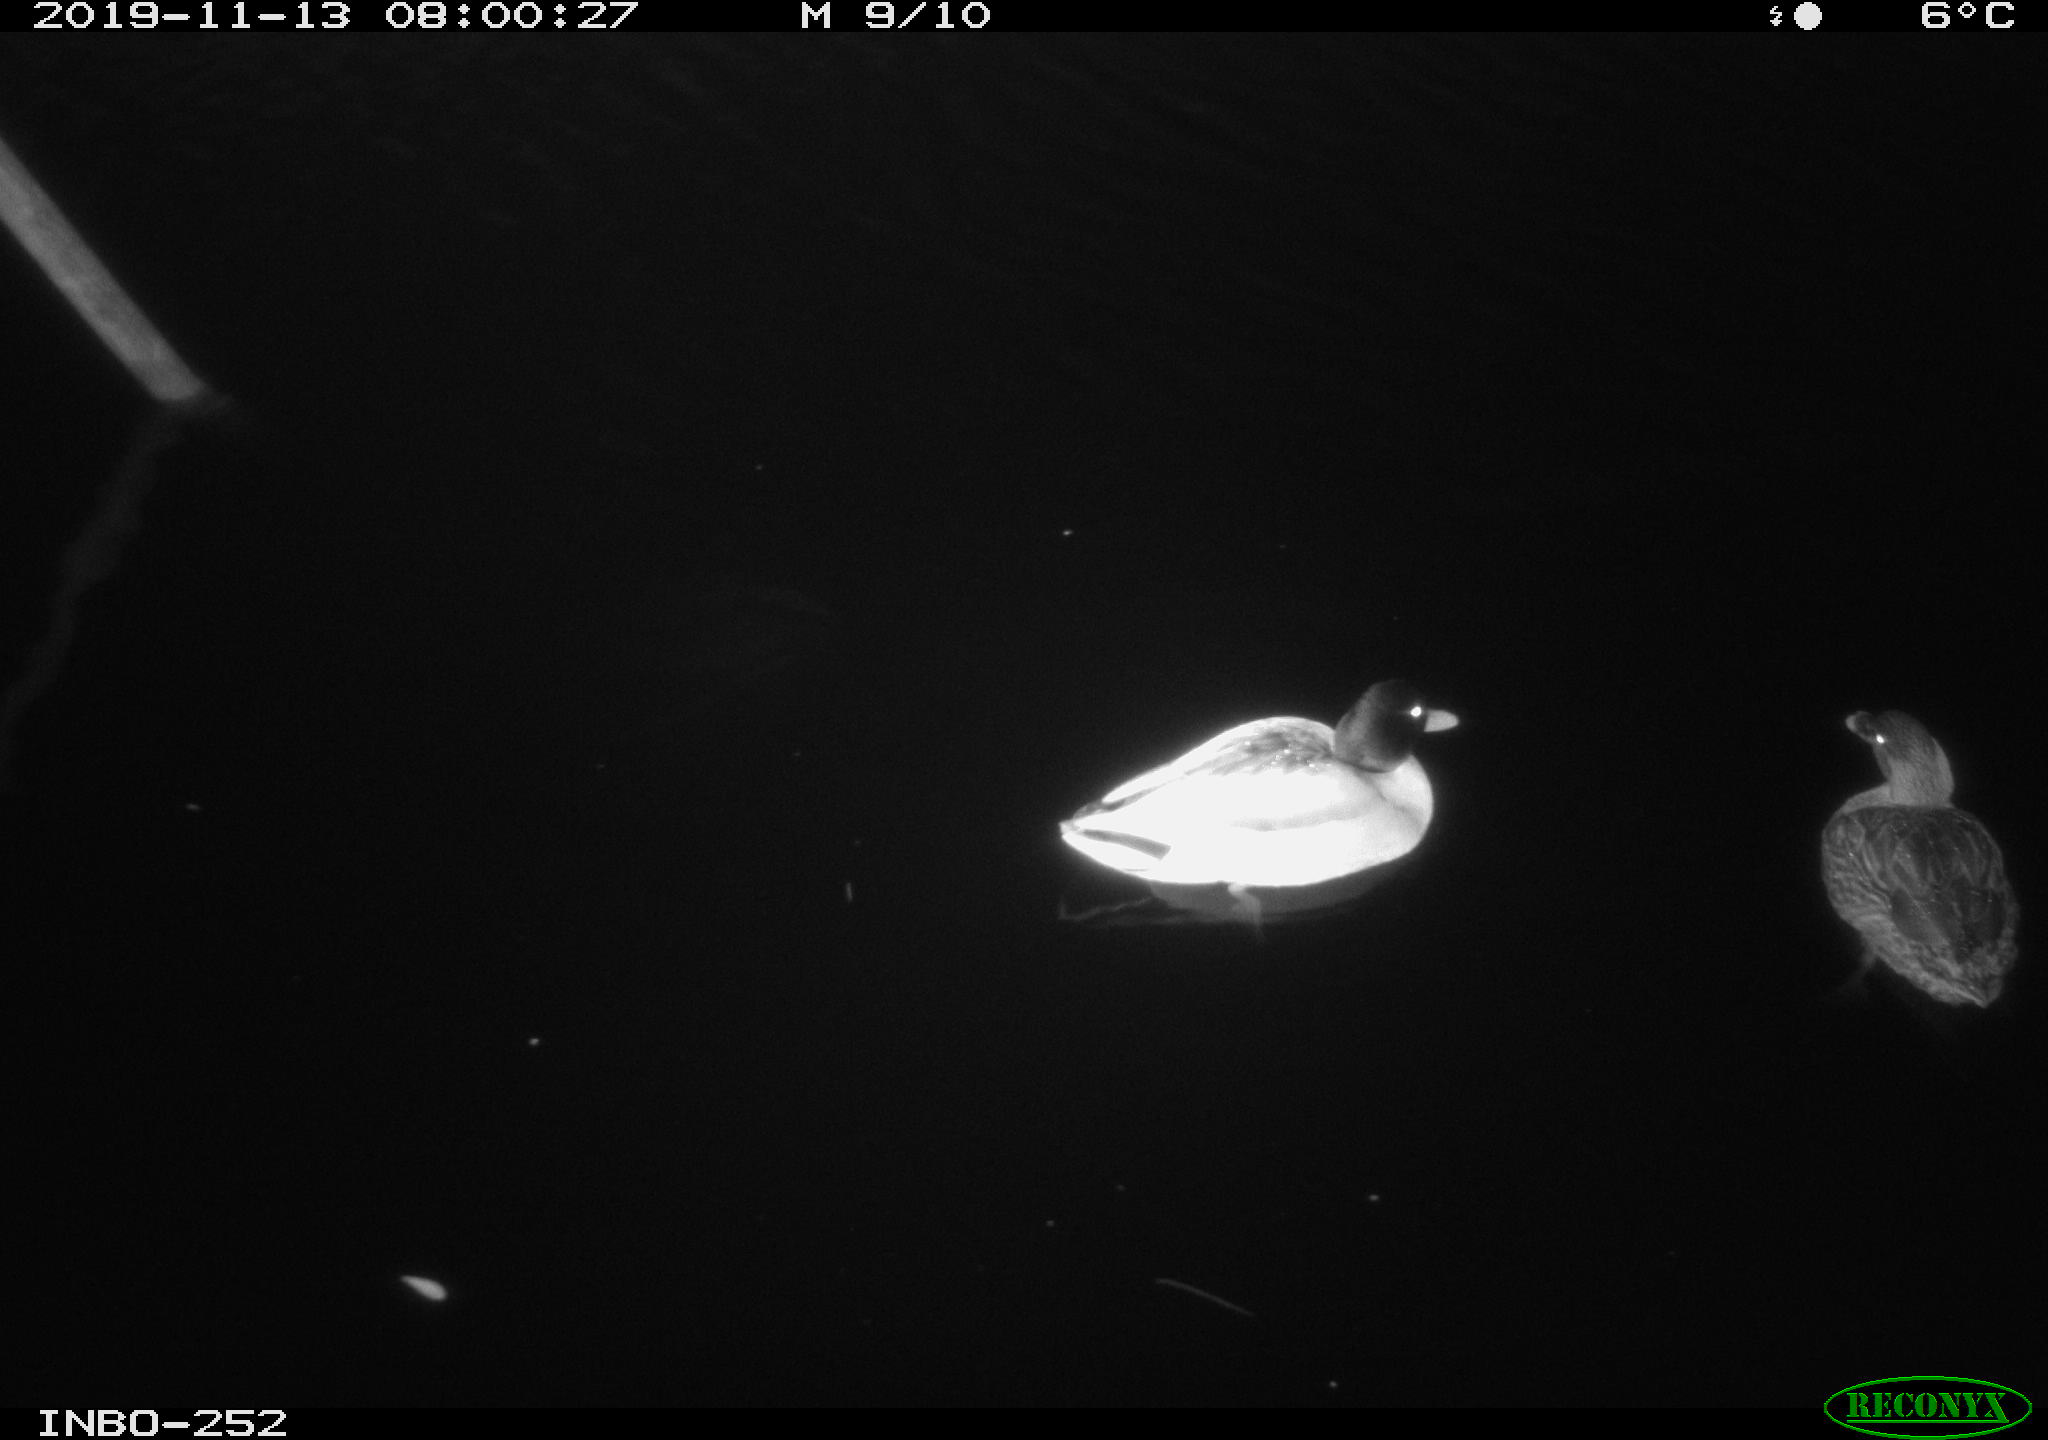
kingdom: Animalia
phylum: Chordata
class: Aves
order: Anseriformes
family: Anatidae
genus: Anas
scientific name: Anas platyrhynchos
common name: Mallard
